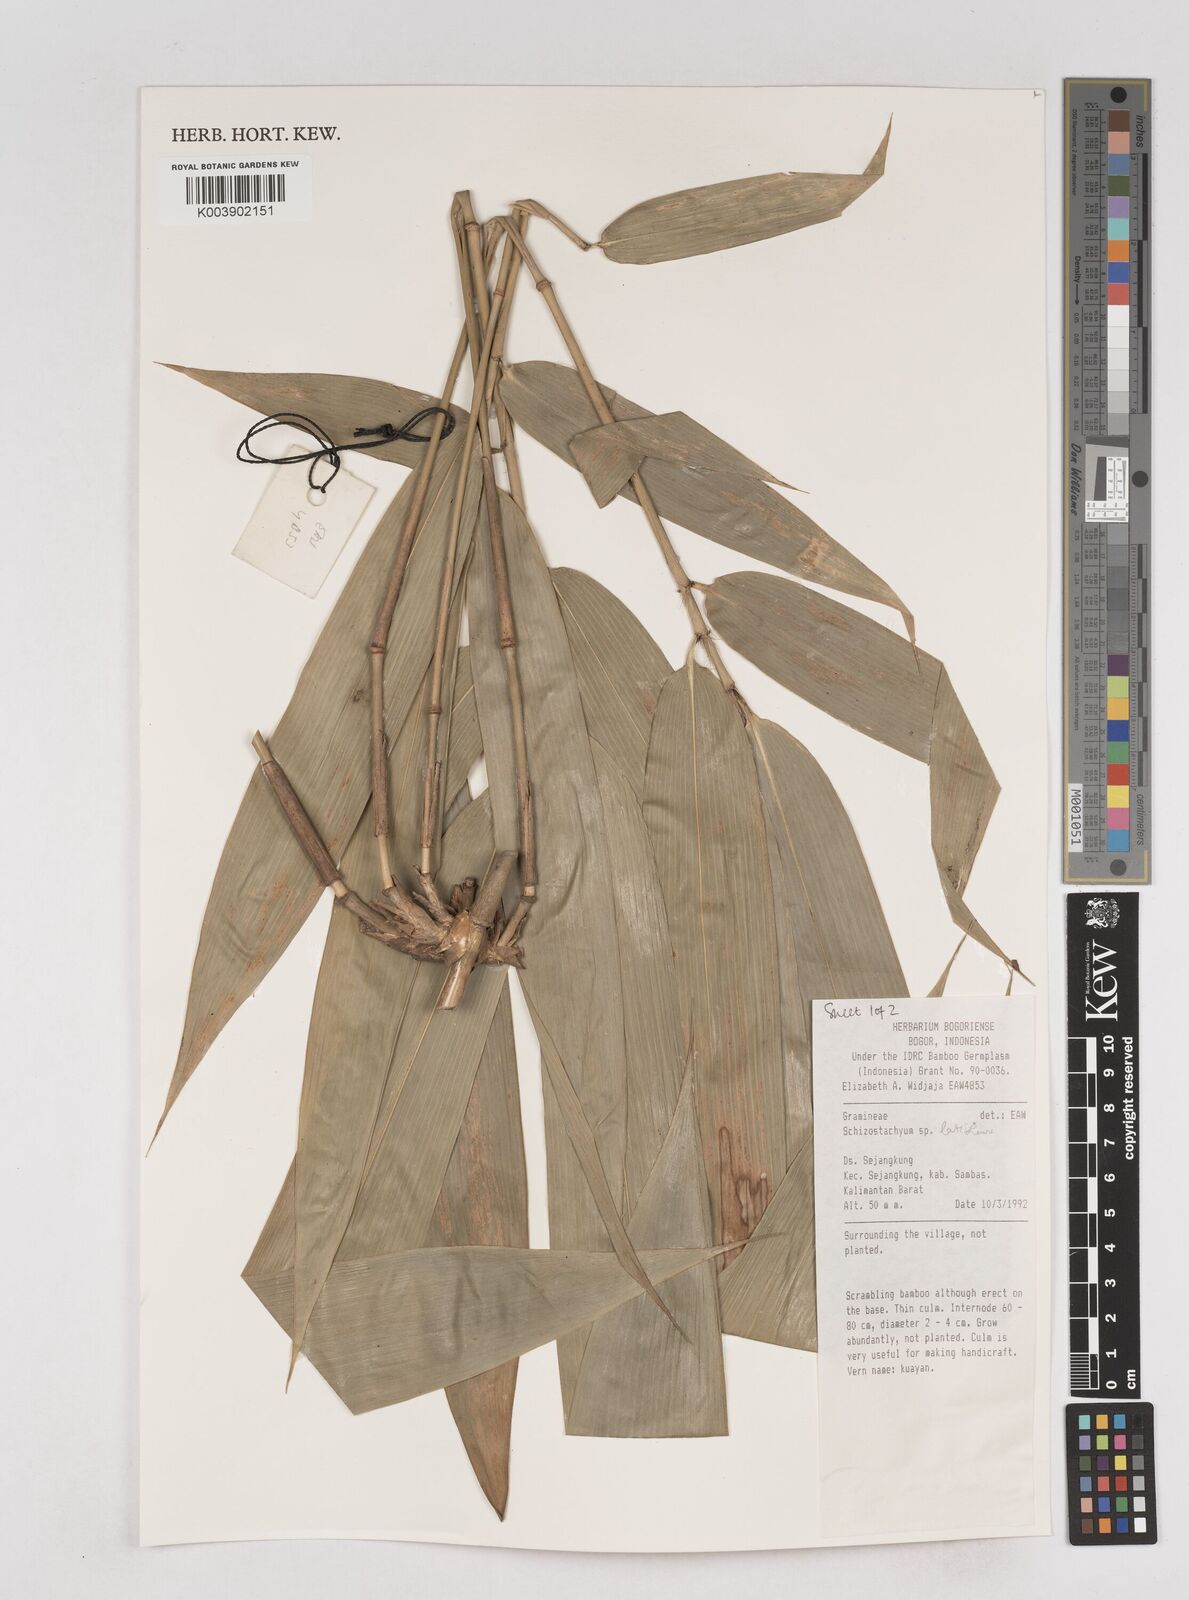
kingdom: Plantae
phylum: Tracheophyta
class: Liliopsida
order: Poales
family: Poaceae
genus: Schizostachyum
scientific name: Schizostachyum
